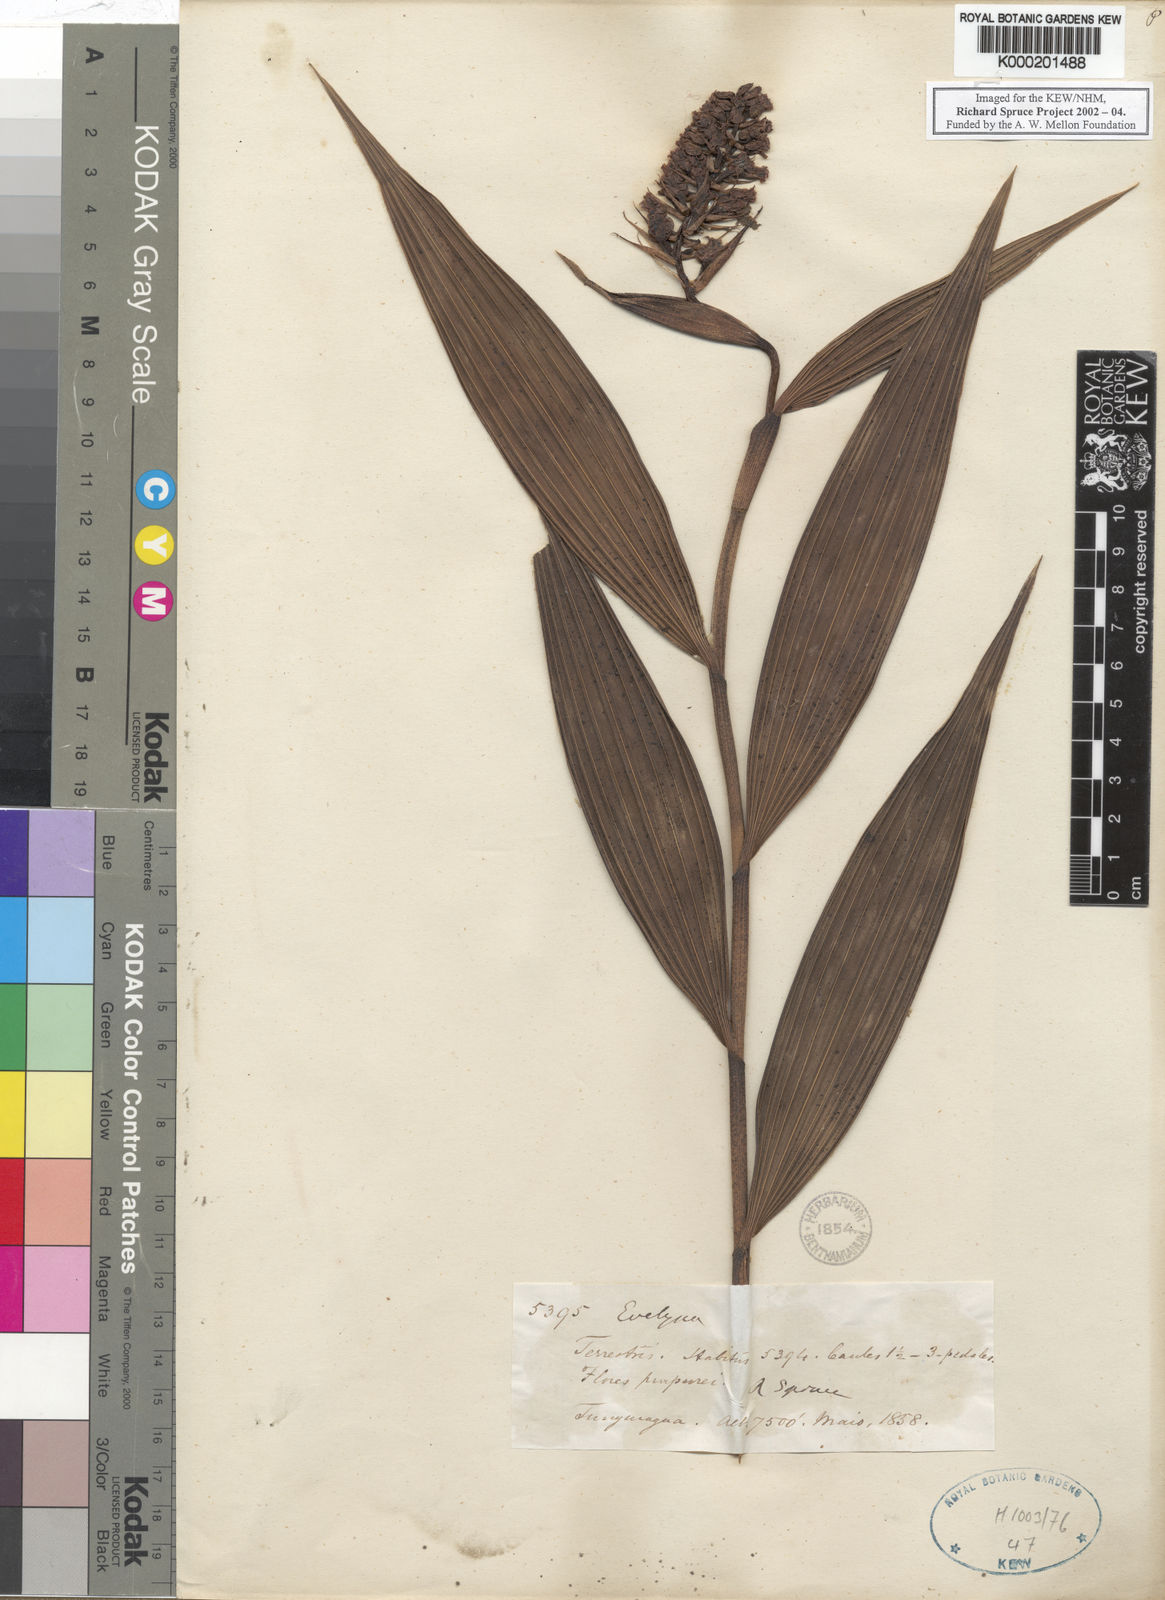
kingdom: Plantae
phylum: Tracheophyta
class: Liliopsida
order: Asparagales
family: Orchidaceae
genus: Elleanthus
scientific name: Elleanthus
